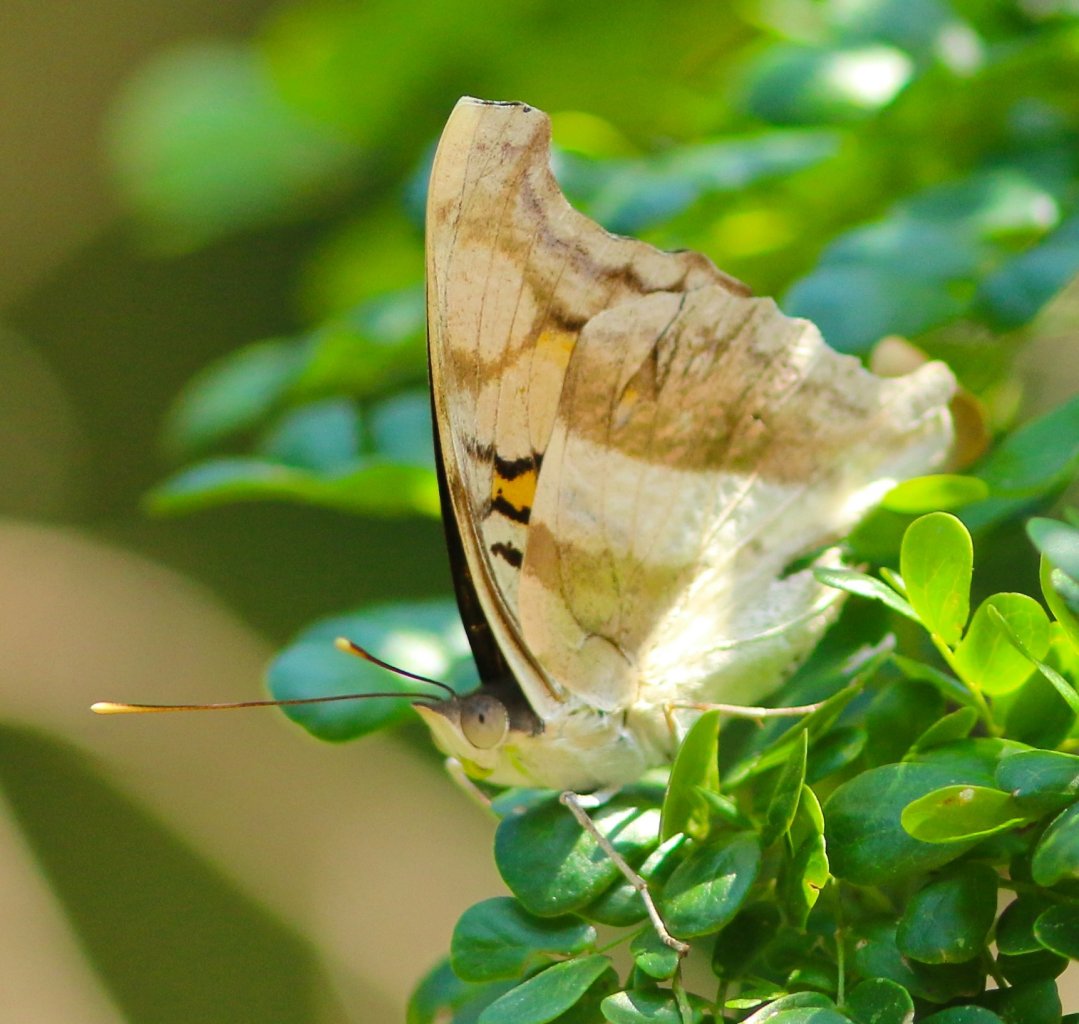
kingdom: Animalia
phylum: Arthropoda
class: Insecta
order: Lepidoptera
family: Nymphalidae
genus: Doxocopa
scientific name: Doxocopa laure
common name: Silver Emperor
